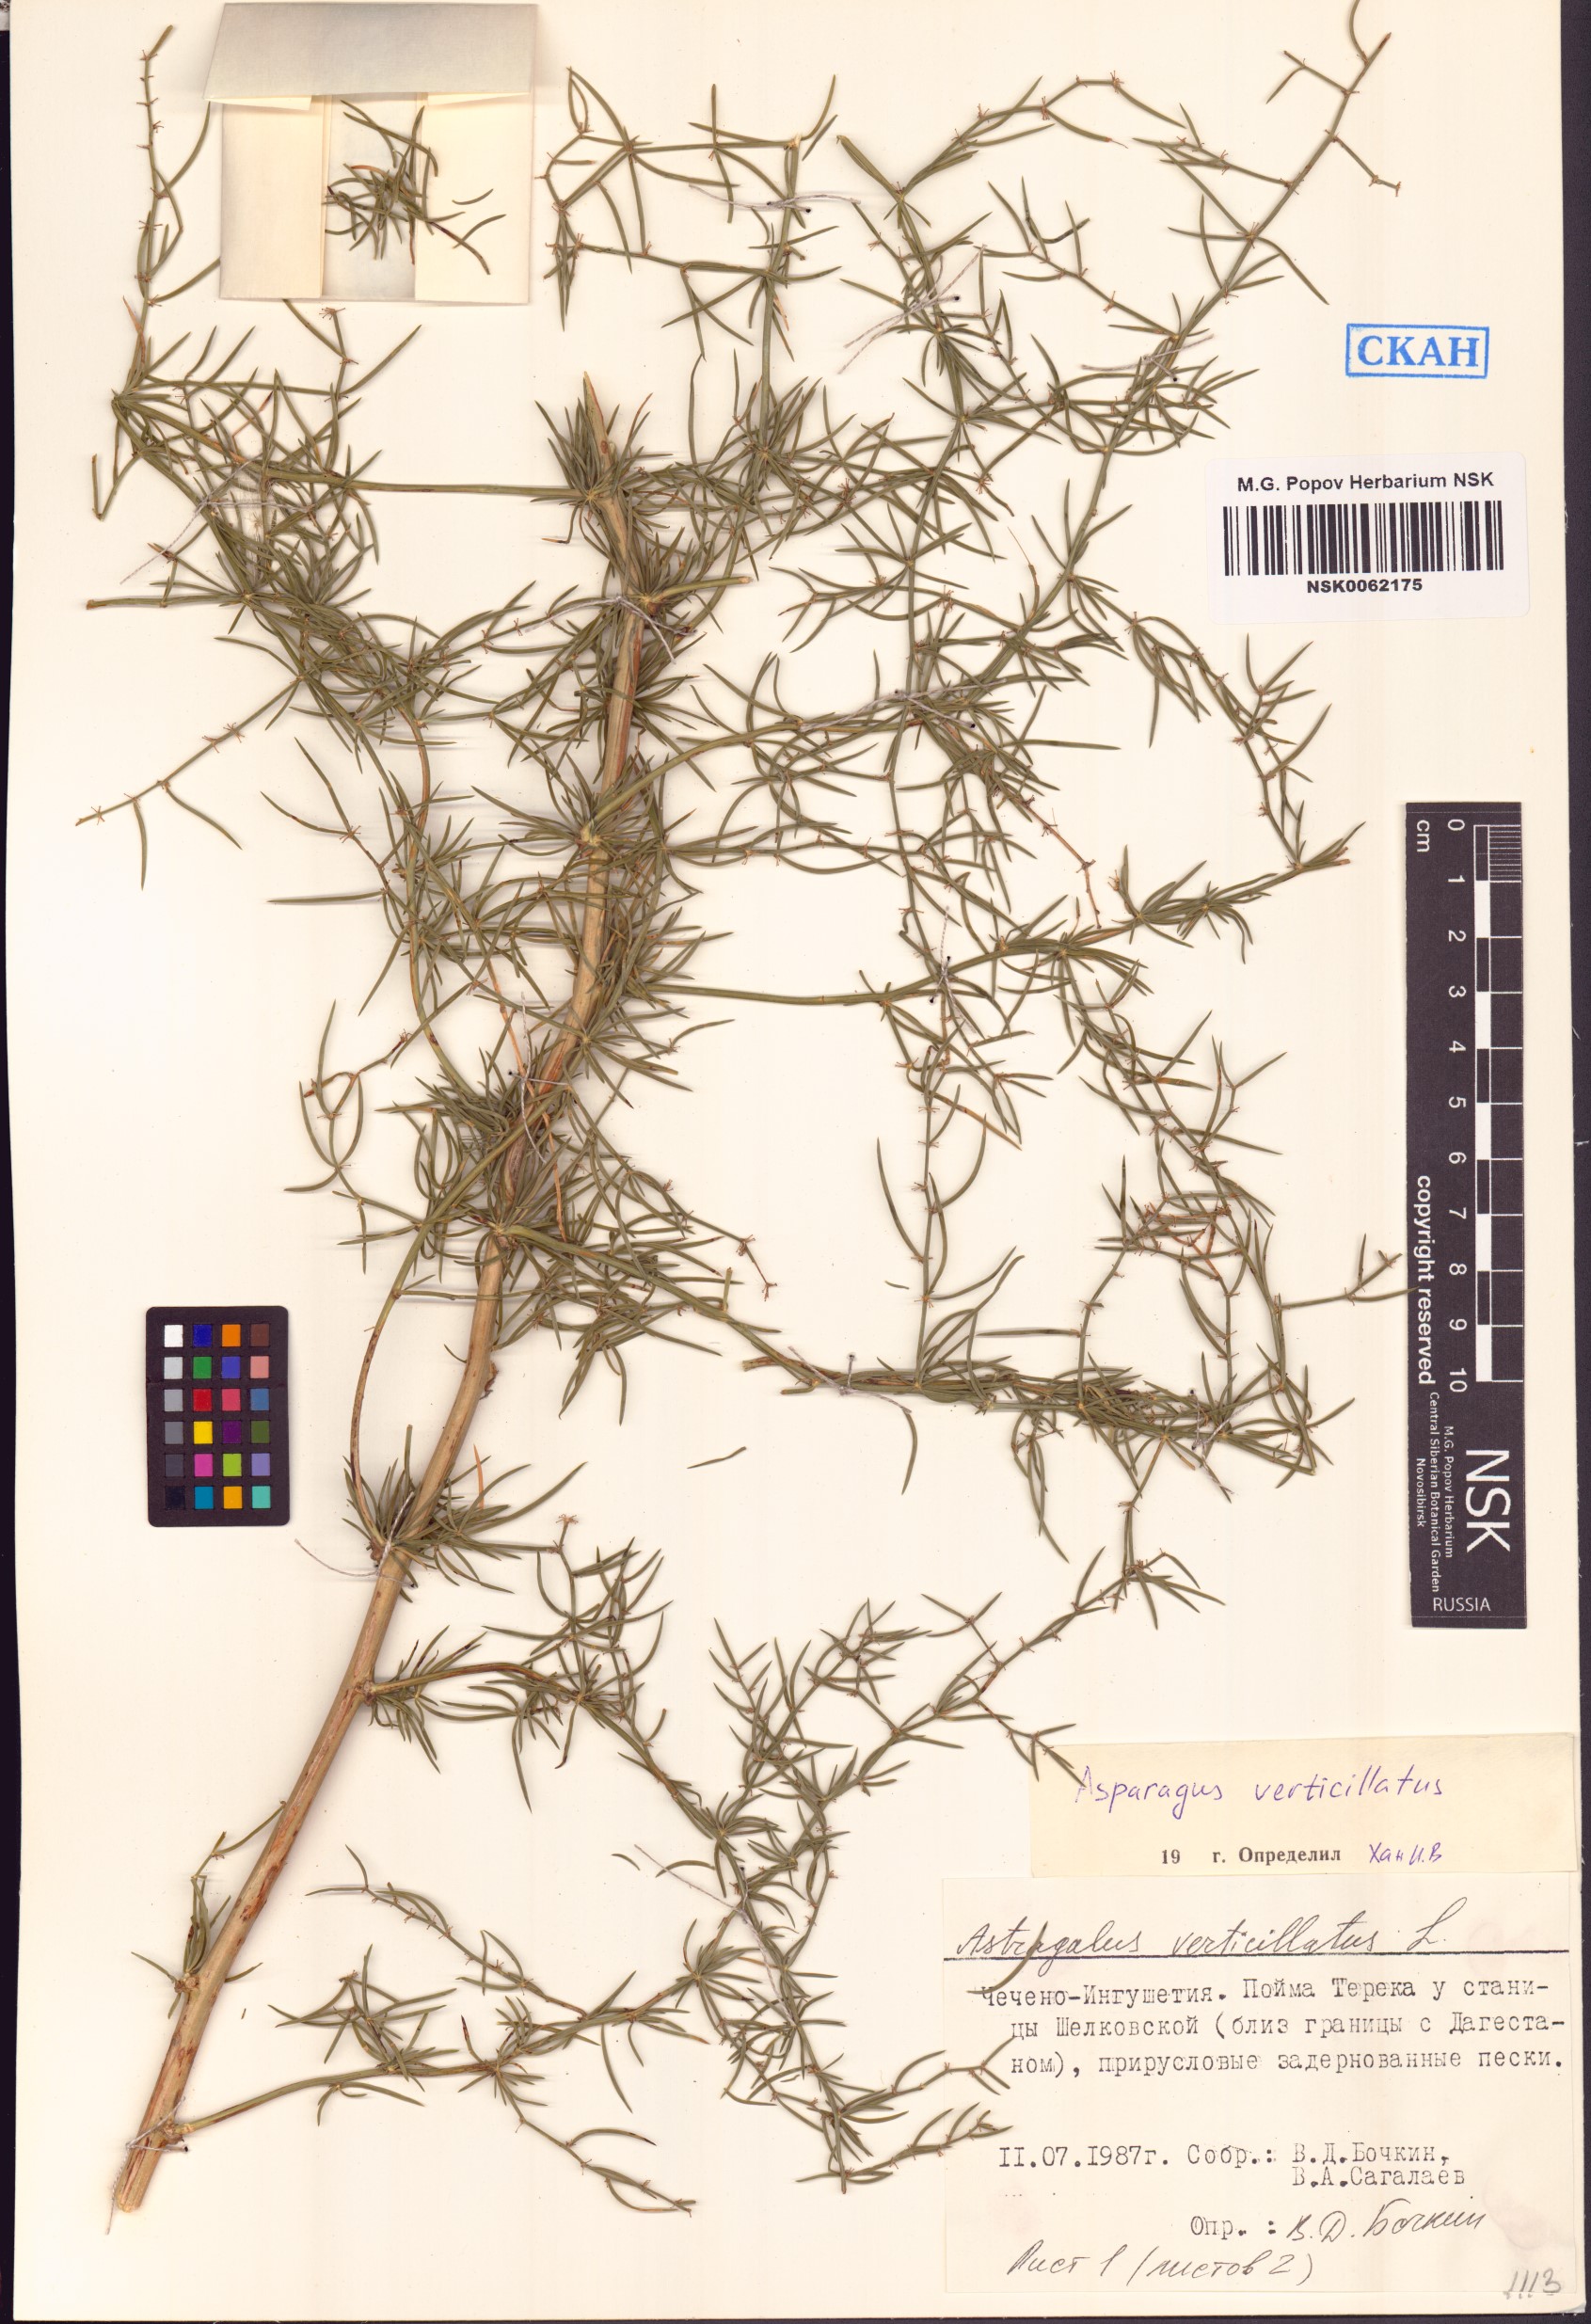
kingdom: Plantae
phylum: Tracheophyta
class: Liliopsida
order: Asparagales
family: Asparagaceae
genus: Asparagus
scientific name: Asparagus verticillatus
